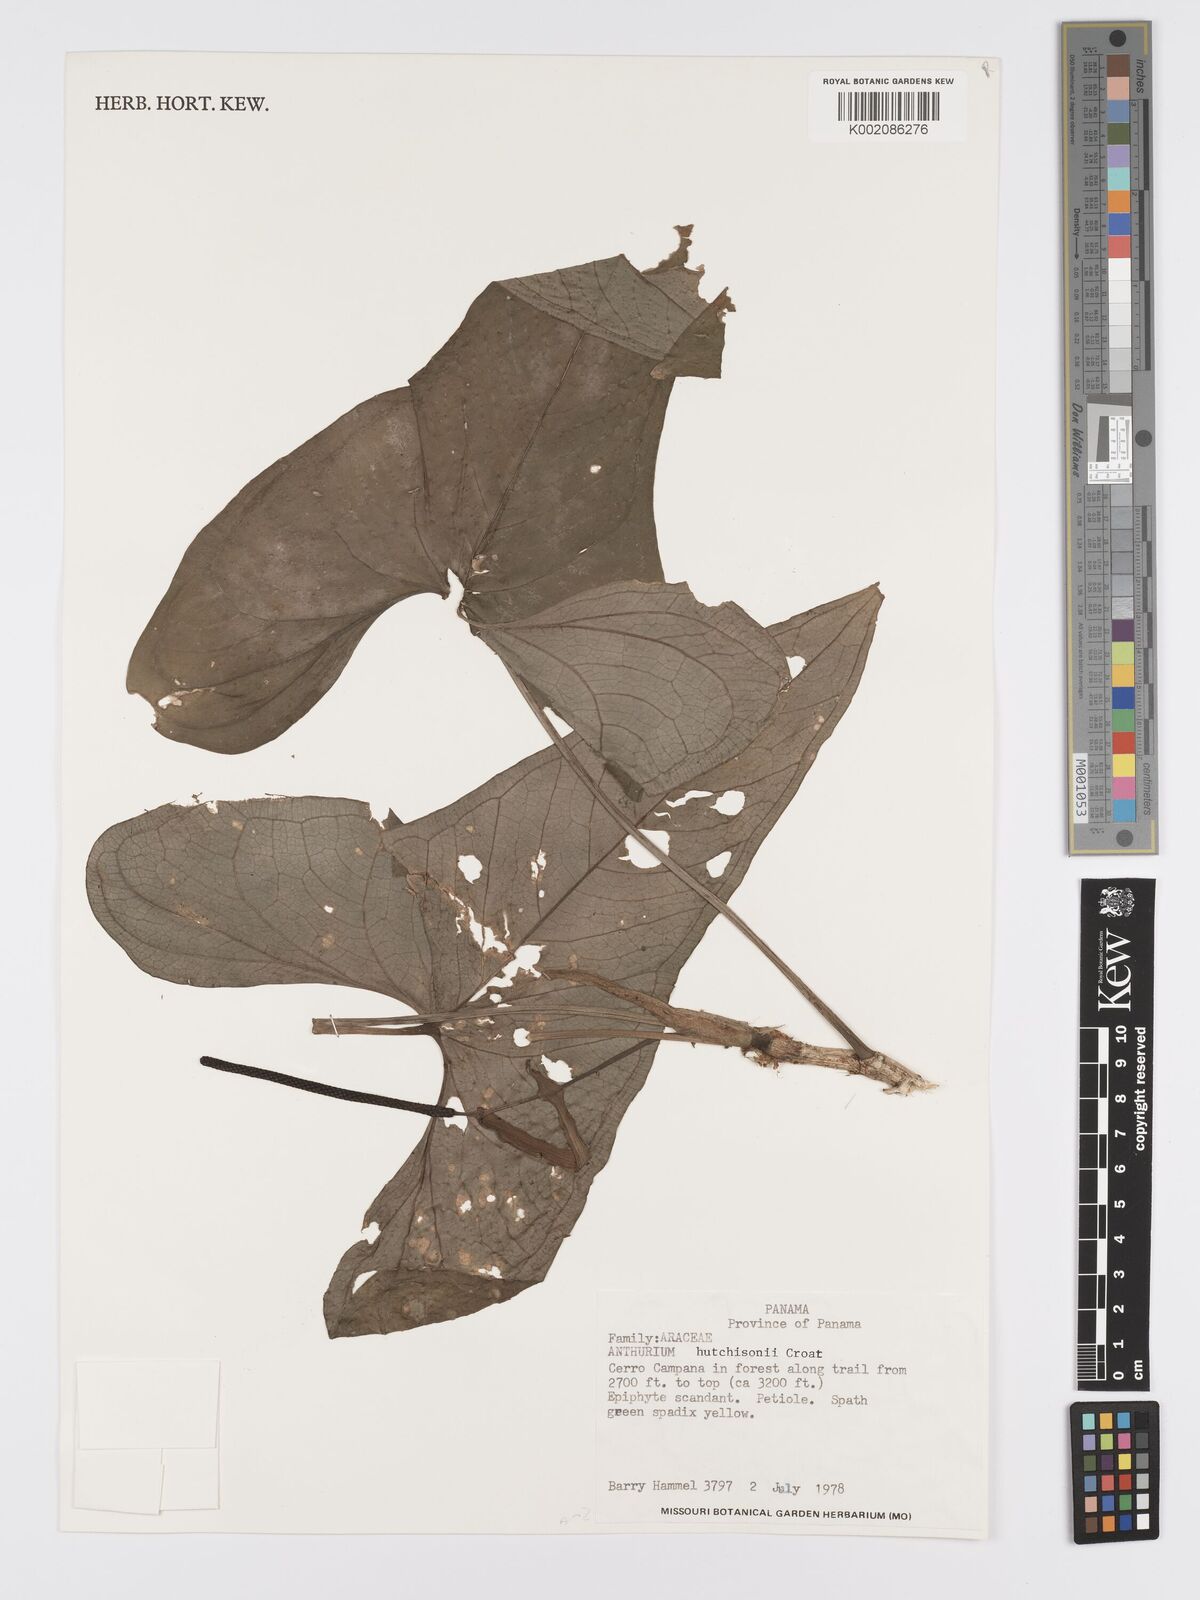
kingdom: Plantae
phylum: Tracheophyta
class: Liliopsida
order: Alismatales
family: Araceae
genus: Anthurium
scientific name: Anthurium hutchisonii
